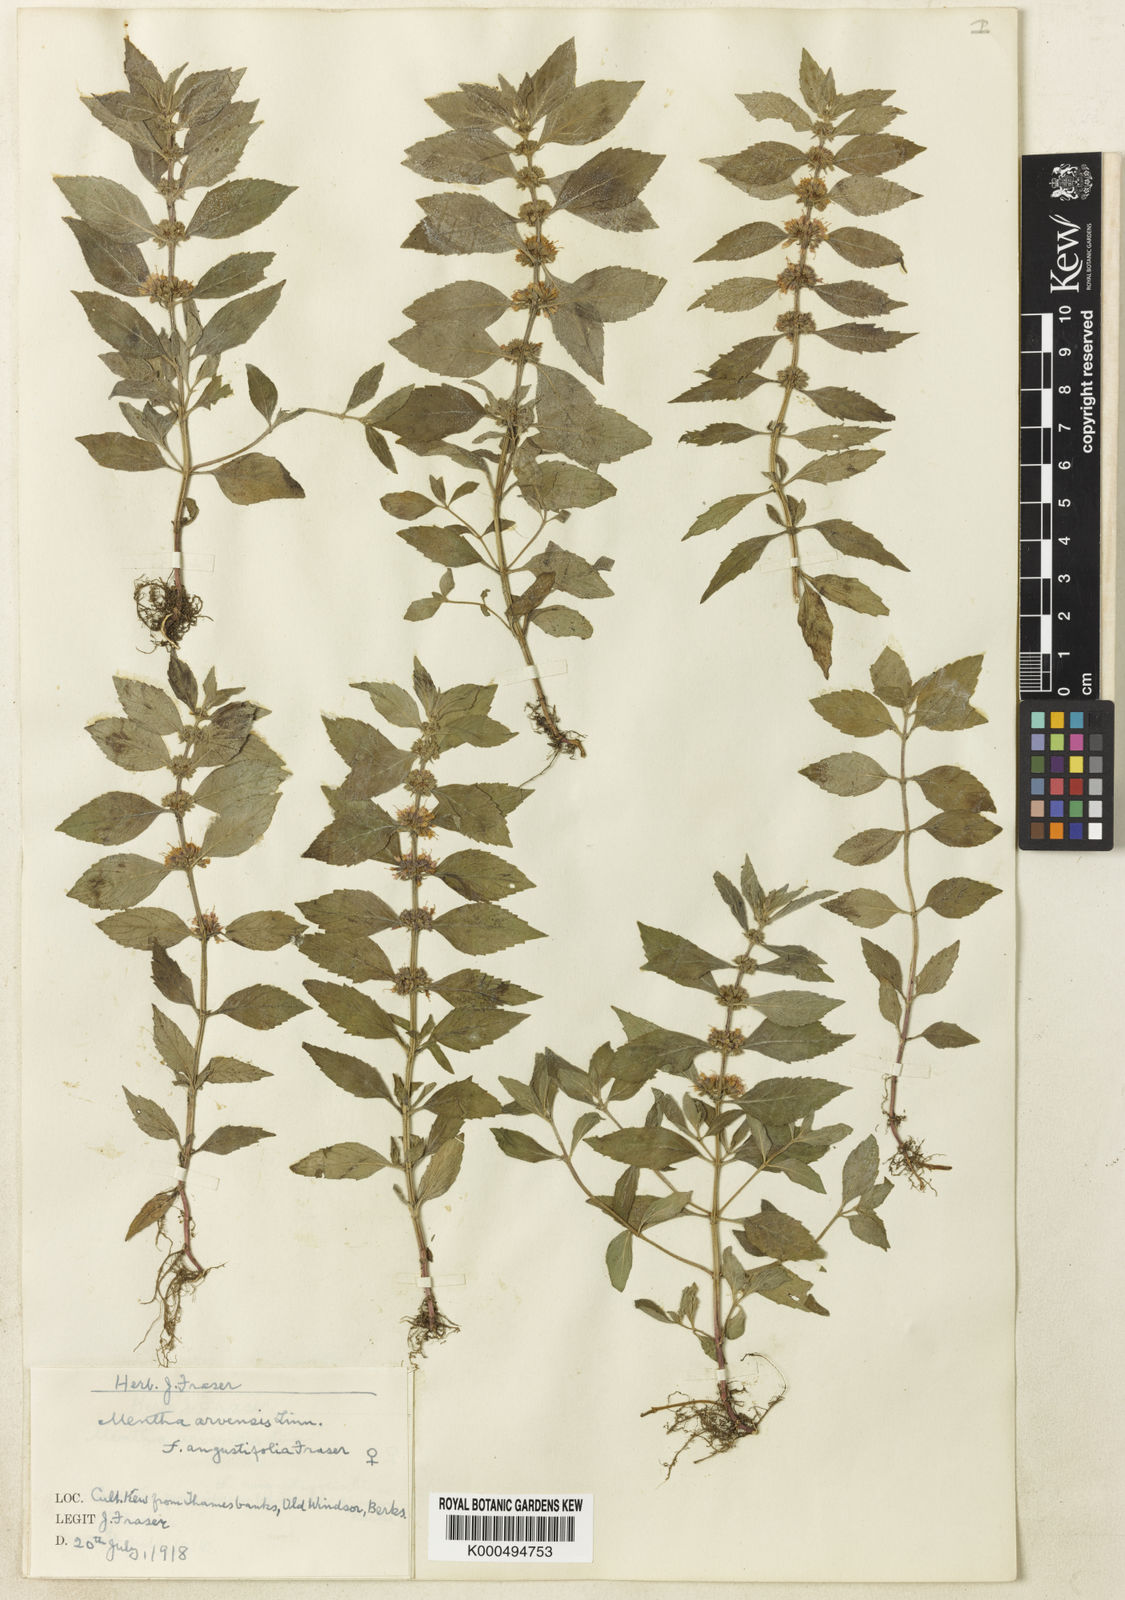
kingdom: Plantae
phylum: Tracheophyta
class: Magnoliopsida
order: Lamiales
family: Lamiaceae
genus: Mentha
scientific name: Mentha arvensis
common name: Corn mint
